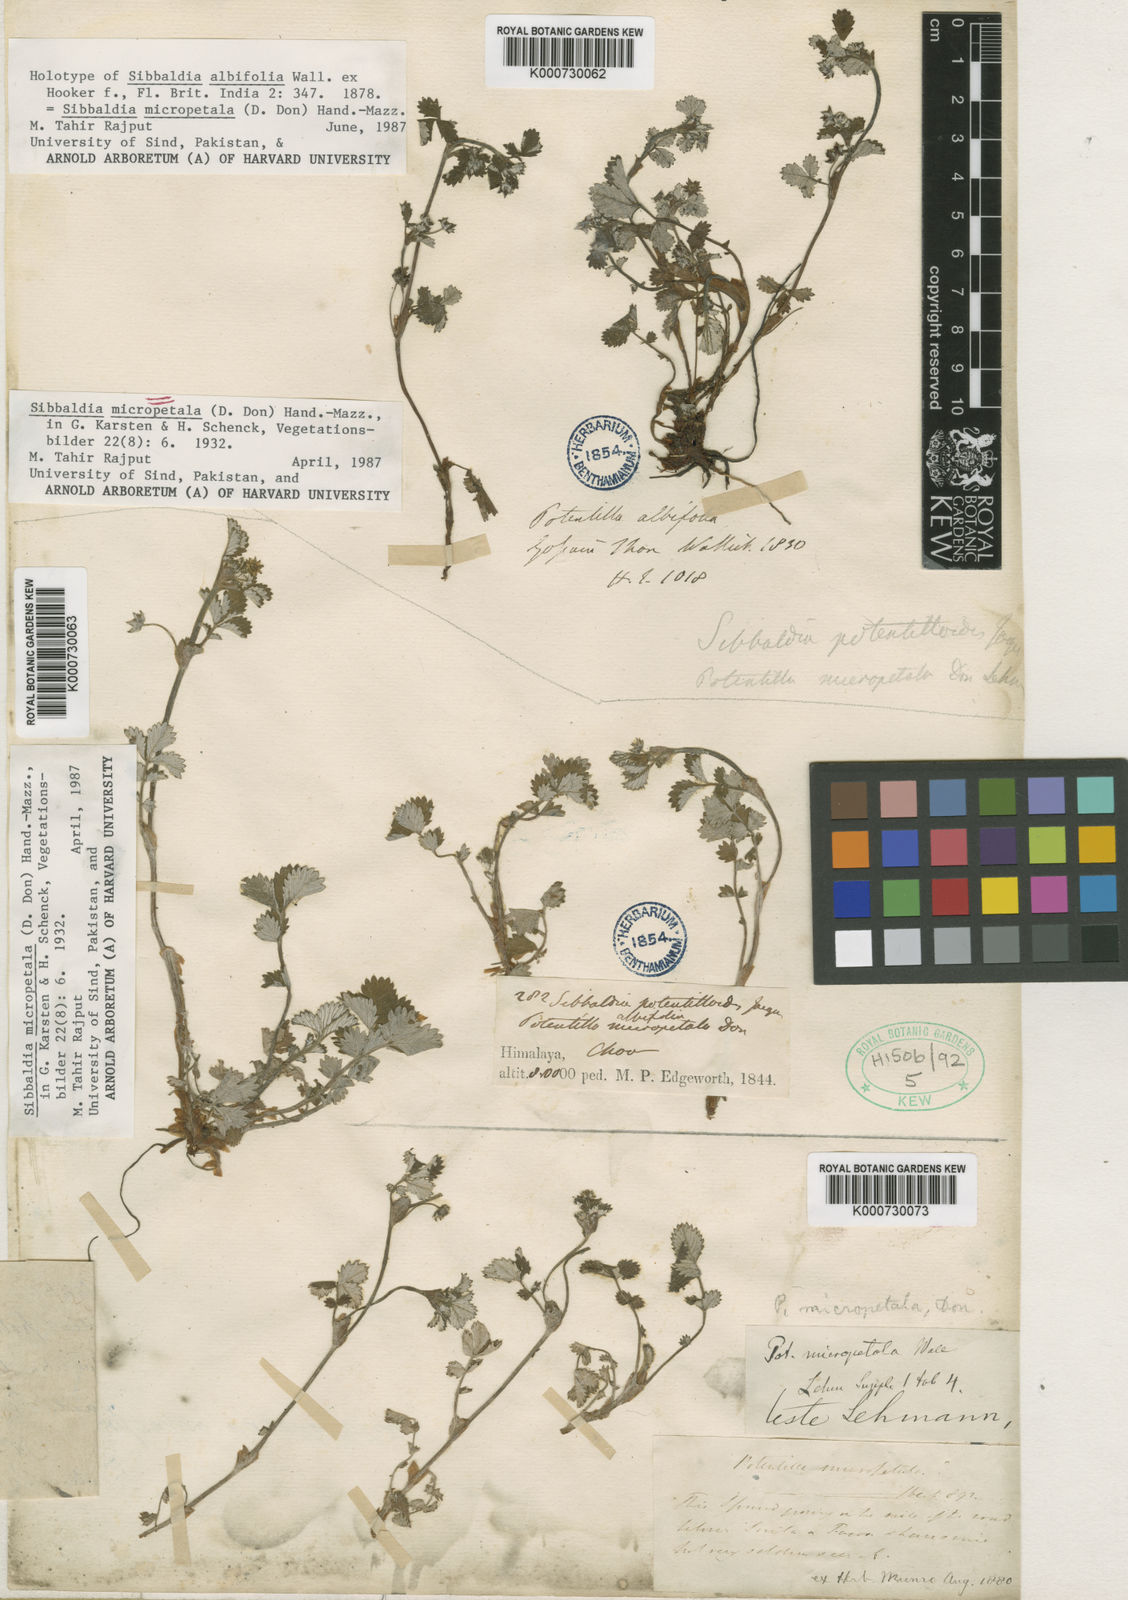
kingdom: Plantae
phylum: Tracheophyta
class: Magnoliopsida
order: Rosales
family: Rosaceae
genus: Sibbaldia
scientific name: Sibbaldia
